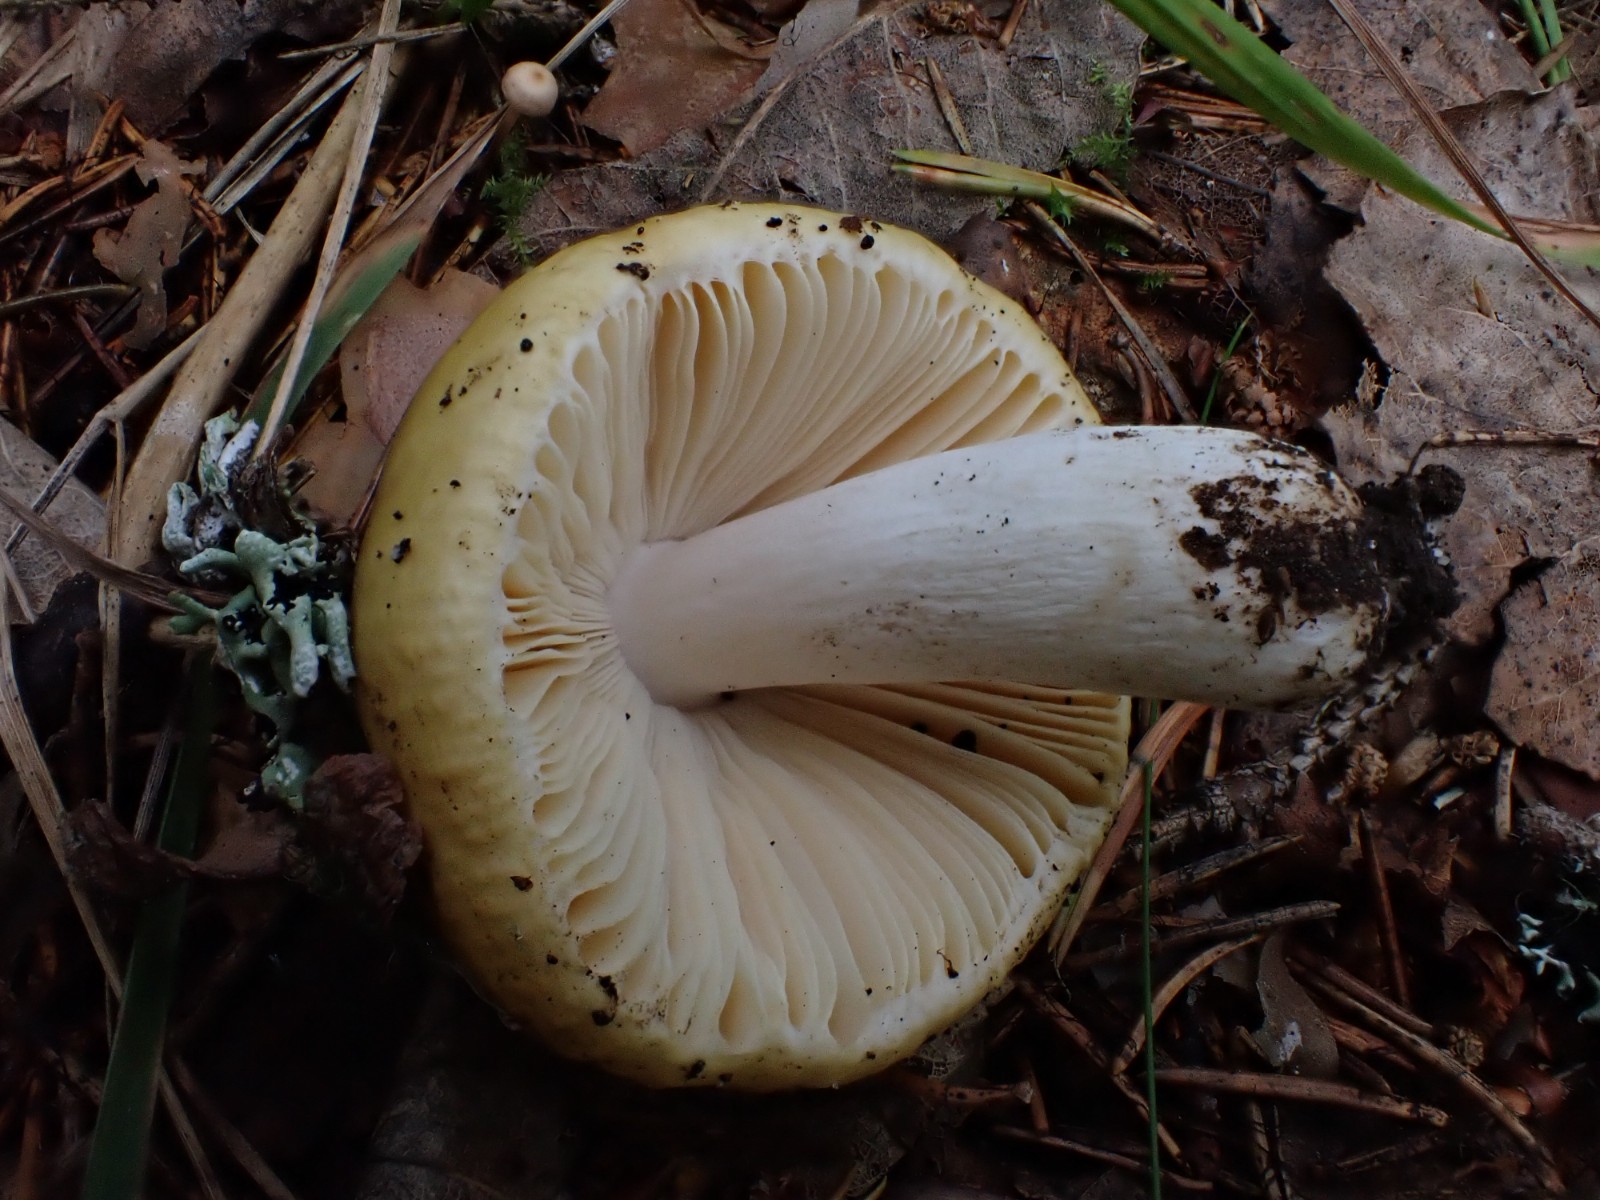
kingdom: Fungi
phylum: Basidiomycota
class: Agaricomycetes
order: Russulales
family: Russulaceae
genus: Russula
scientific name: Russula cremeoavellanea
